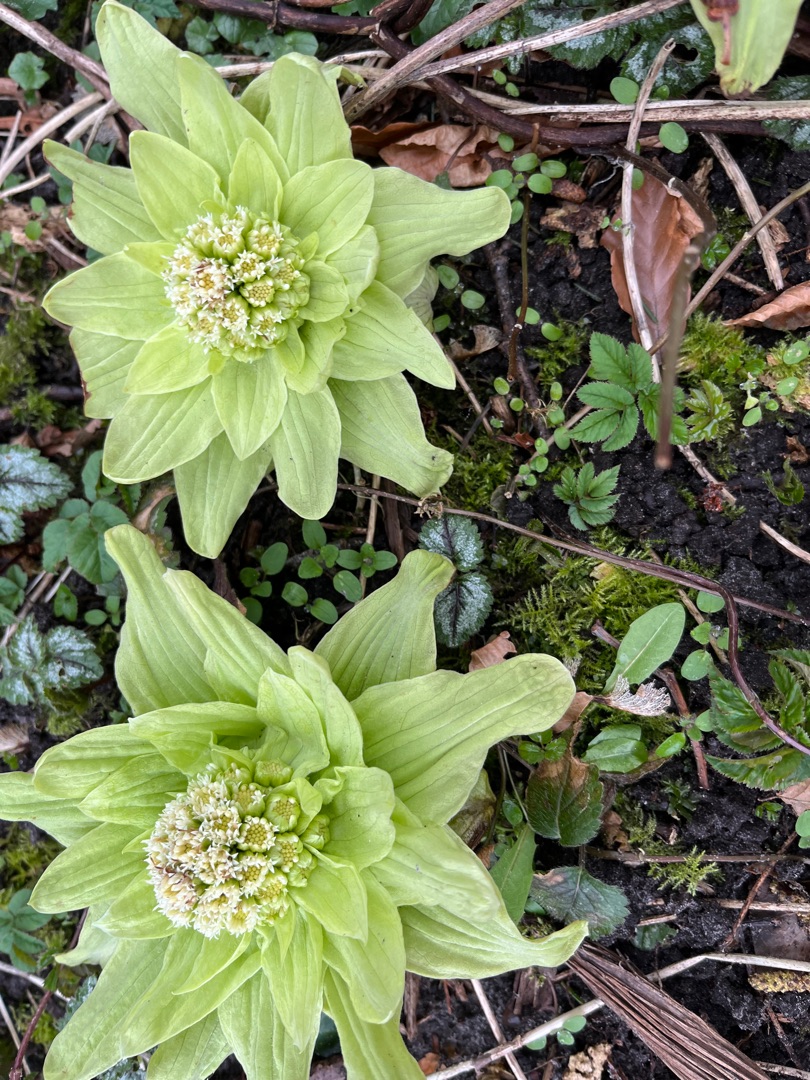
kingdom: Plantae
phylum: Tracheophyta
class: Magnoliopsida
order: Asterales
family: Asteraceae
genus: Petasites
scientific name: Petasites japonicus
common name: Japansk hestehov
